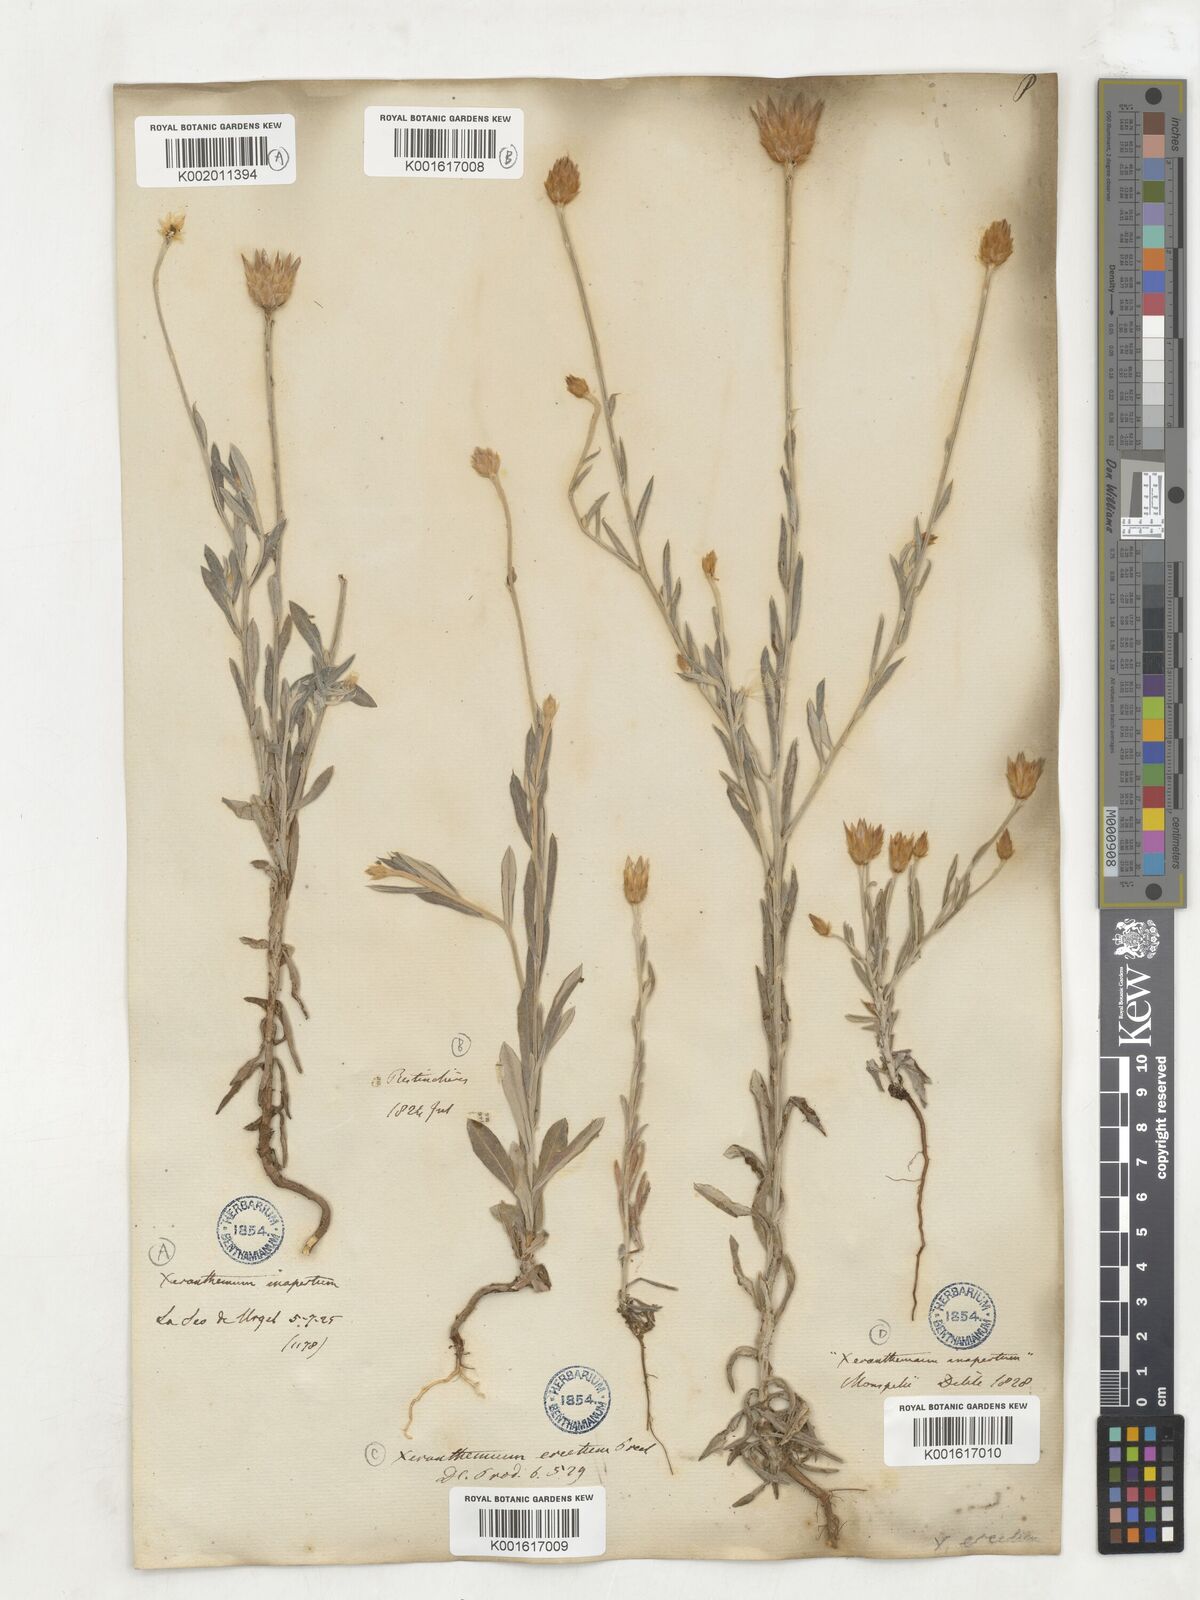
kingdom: Plantae
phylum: Tracheophyta
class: Magnoliopsida
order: Asterales
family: Asteraceae
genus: Xeranthemum
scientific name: Xeranthemum
